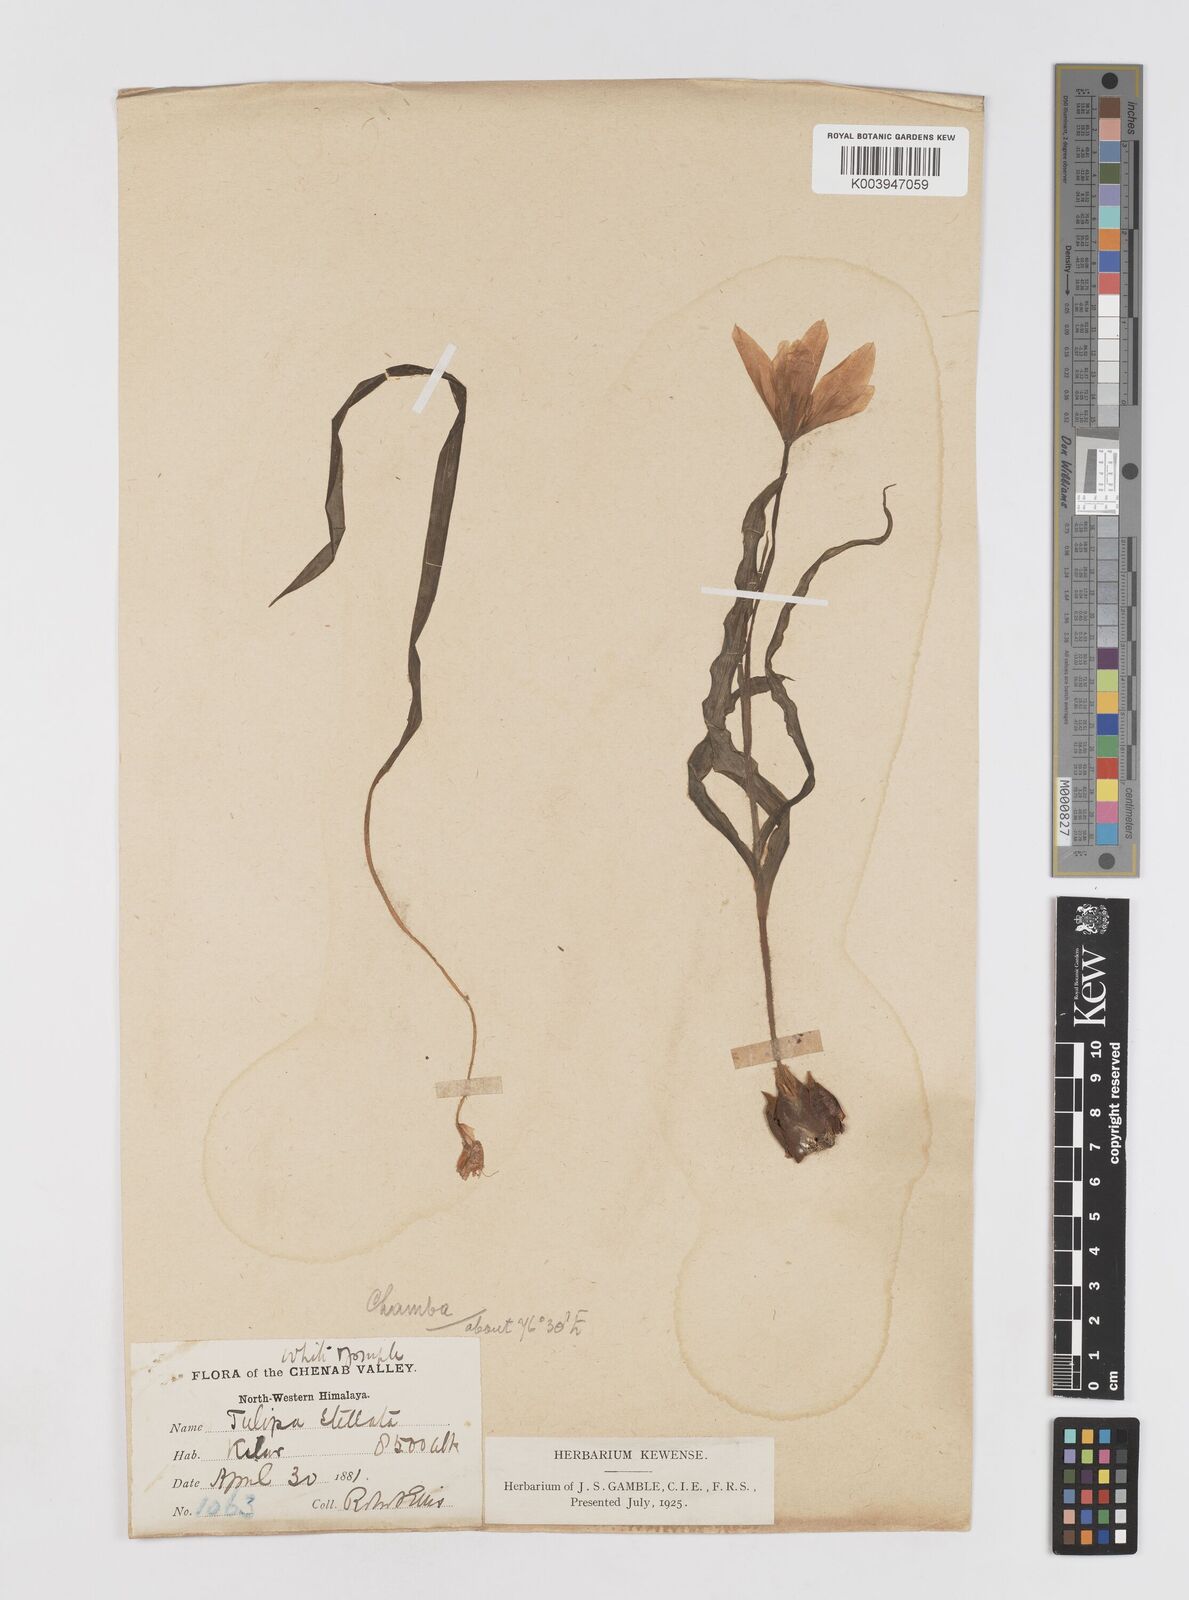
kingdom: Plantae
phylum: Tracheophyta
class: Liliopsida
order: Liliales
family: Liliaceae
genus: Tulipa
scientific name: Tulipa clusiana
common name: Lady tulip
